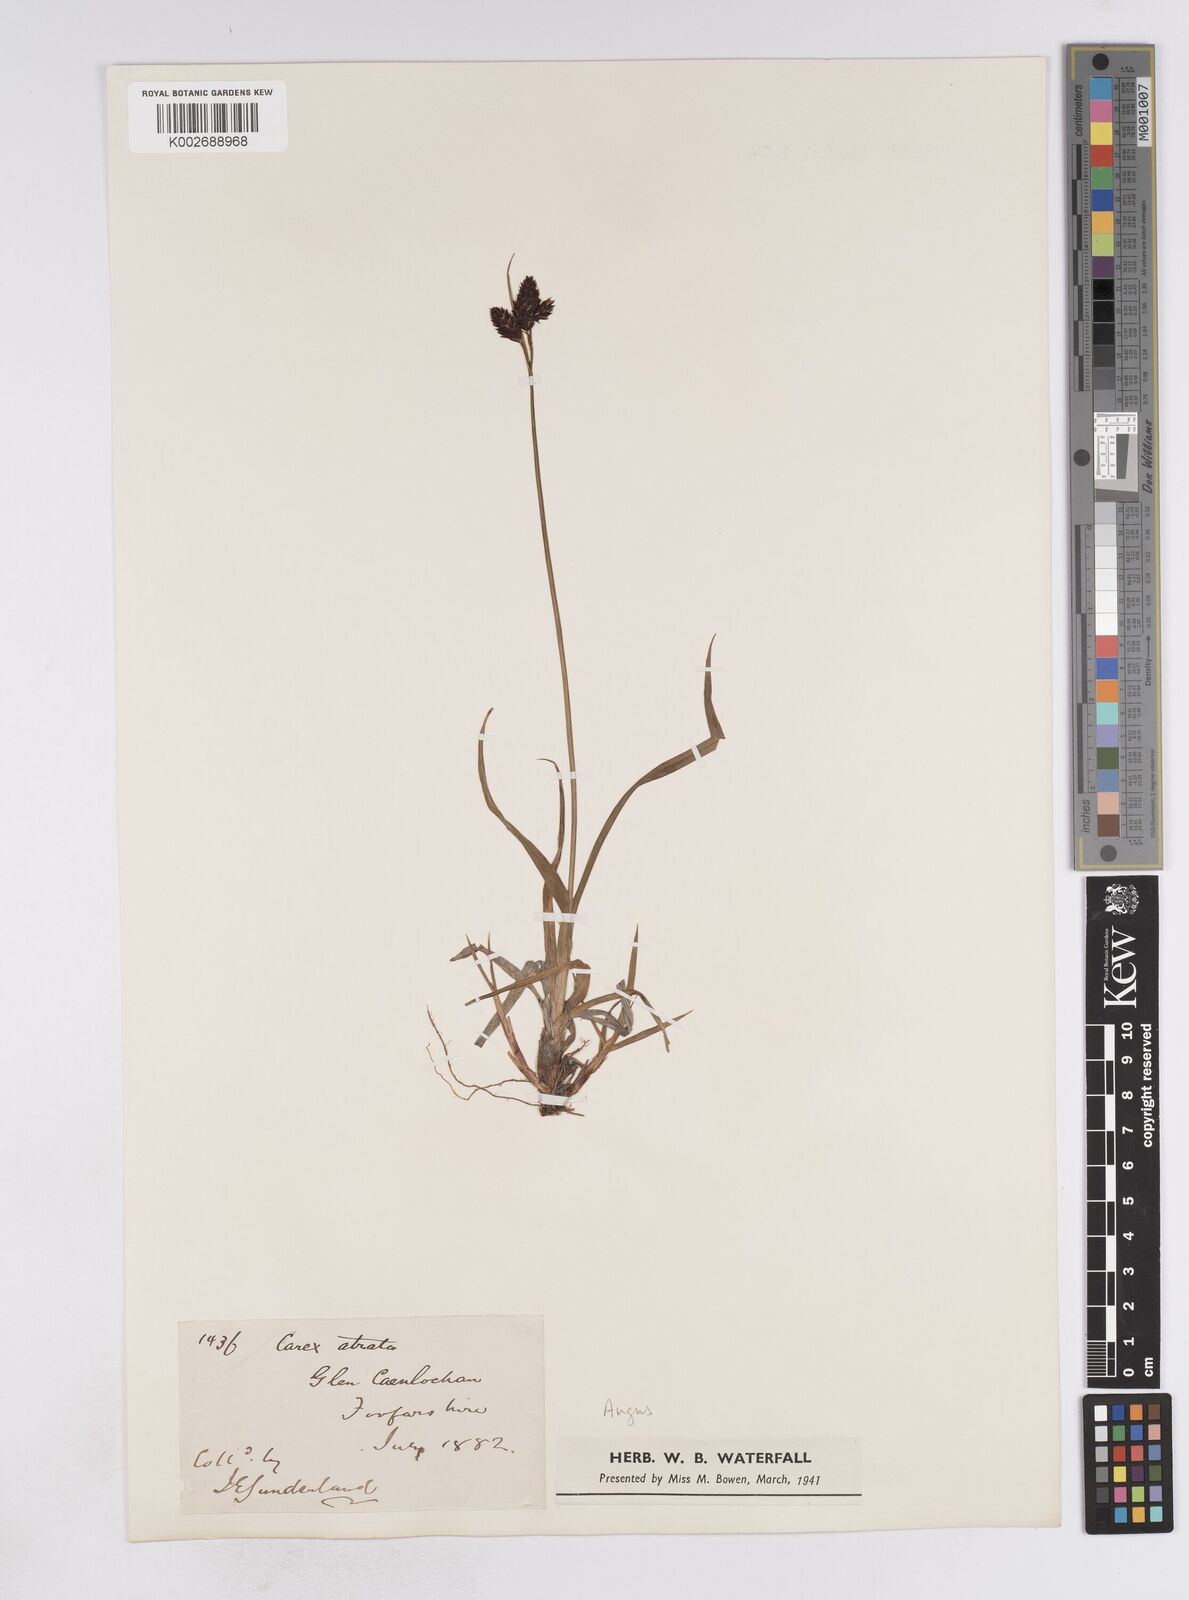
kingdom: Plantae
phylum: Tracheophyta
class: Liliopsida
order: Poales
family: Cyperaceae
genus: Carex
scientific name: Carex atrata
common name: Black alpine sedge
